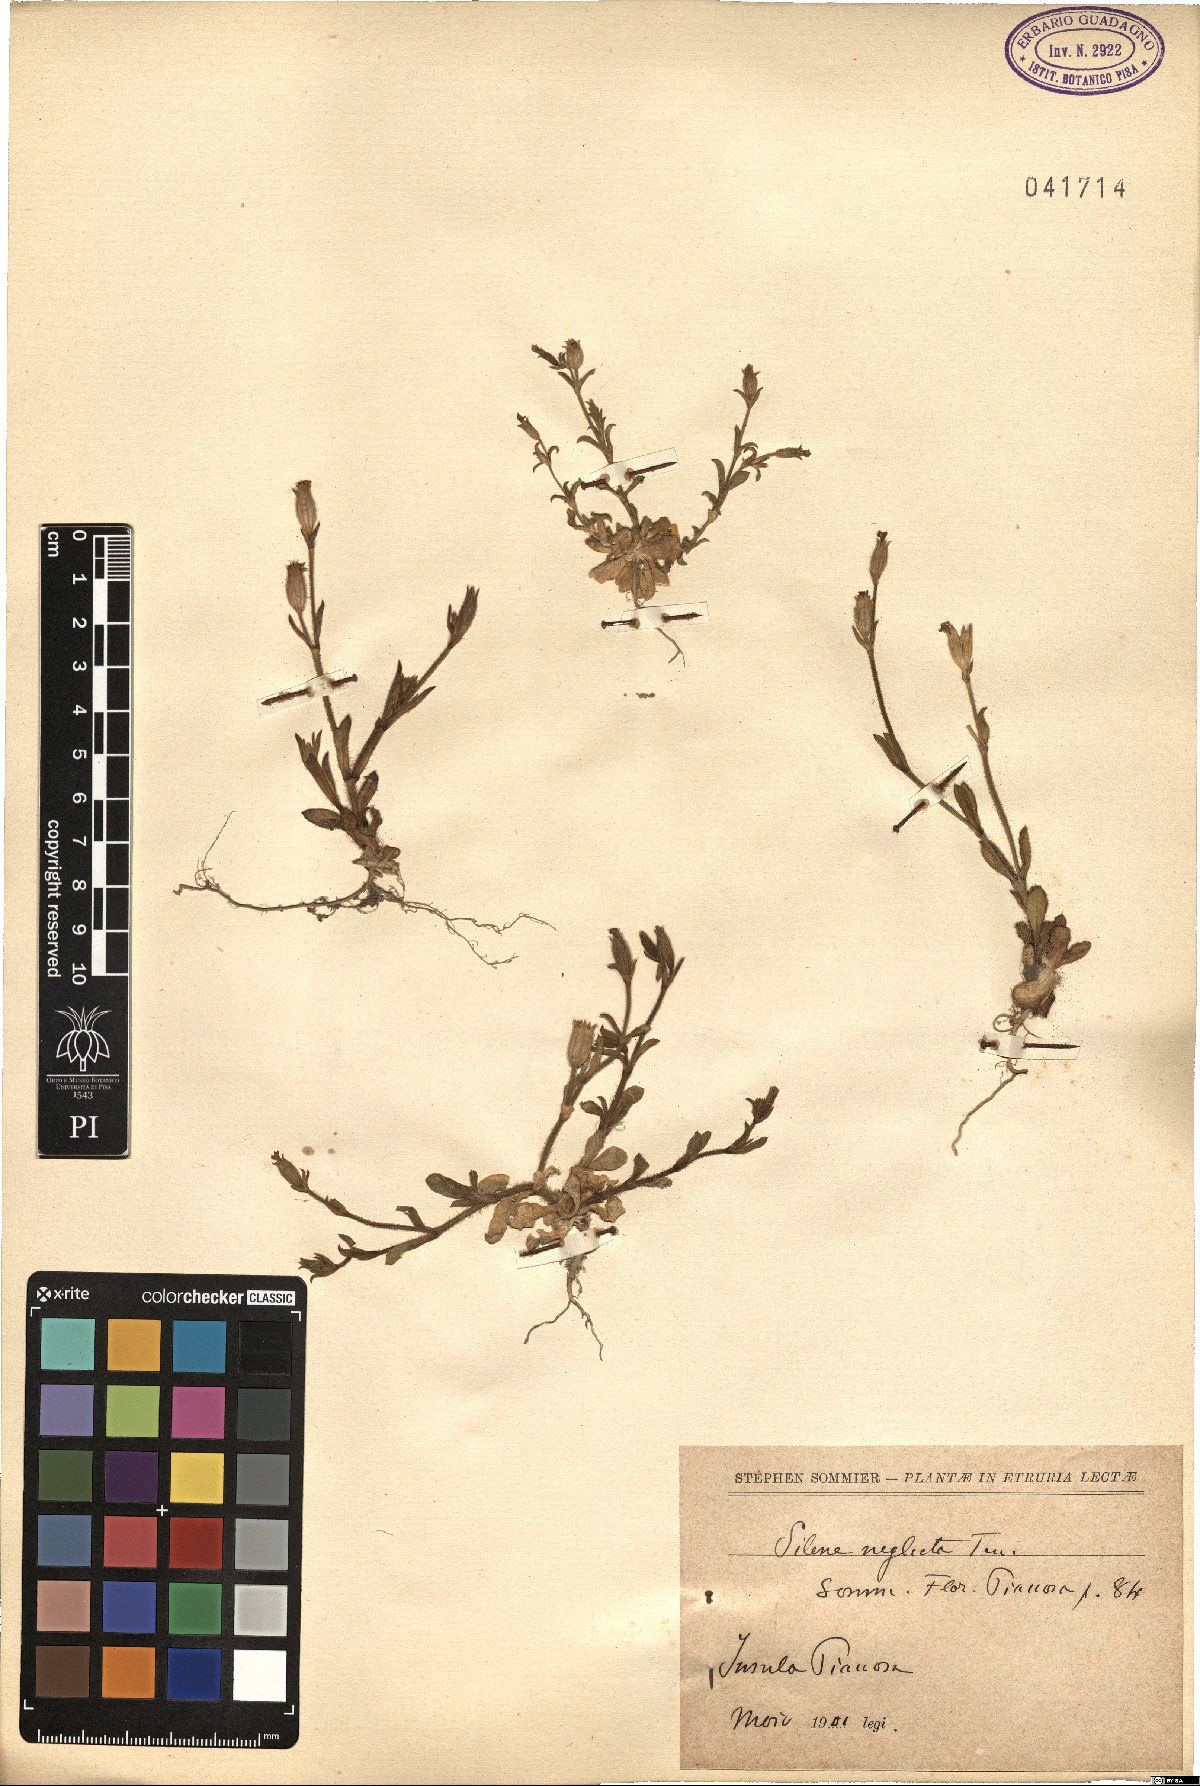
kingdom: Plantae
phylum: Tracheophyta
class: Magnoliopsida
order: Caryophyllales
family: Caryophyllaceae
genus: Silene
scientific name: Silene neglecta
